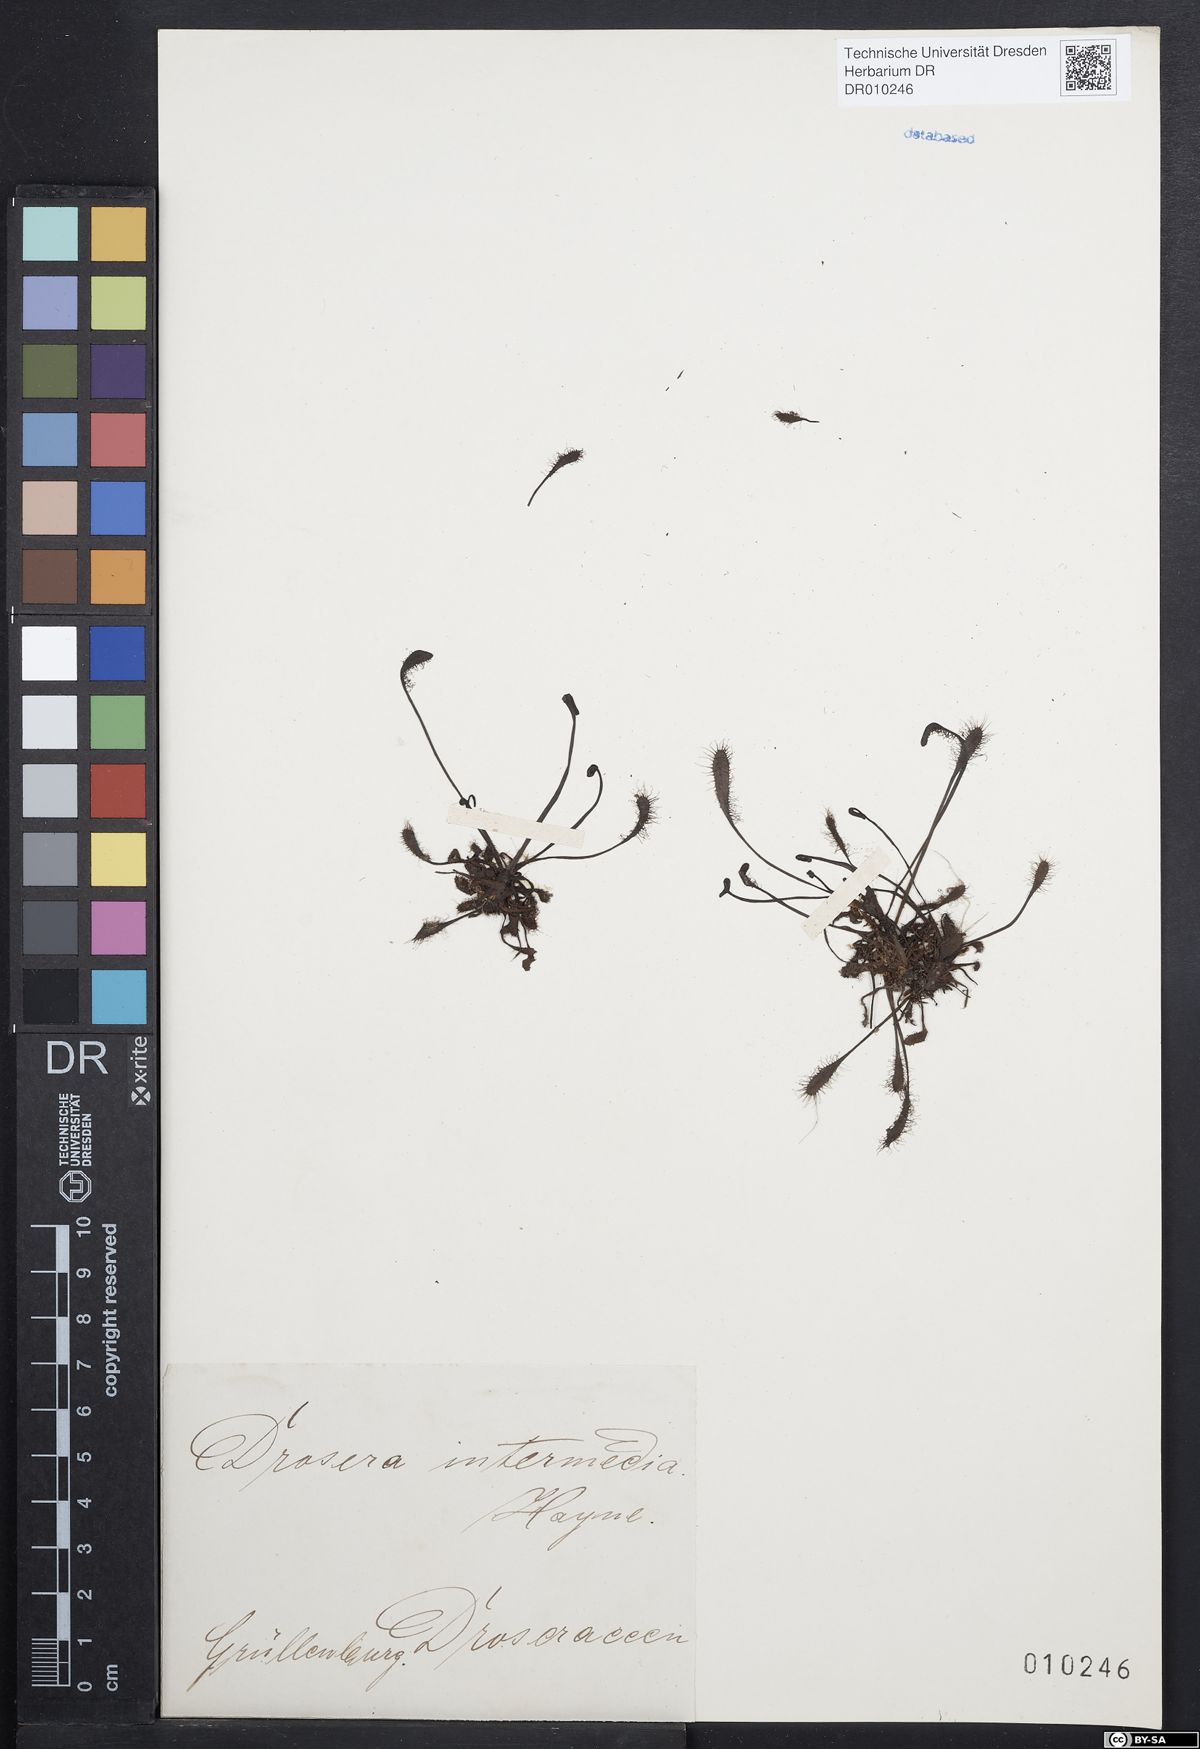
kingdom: Plantae
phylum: Tracheophyta
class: Magnoliopsida
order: Caryophyllales
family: Droseraceae
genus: Drosera
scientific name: Drosera intermedia
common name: Oblong-leaved sundew
